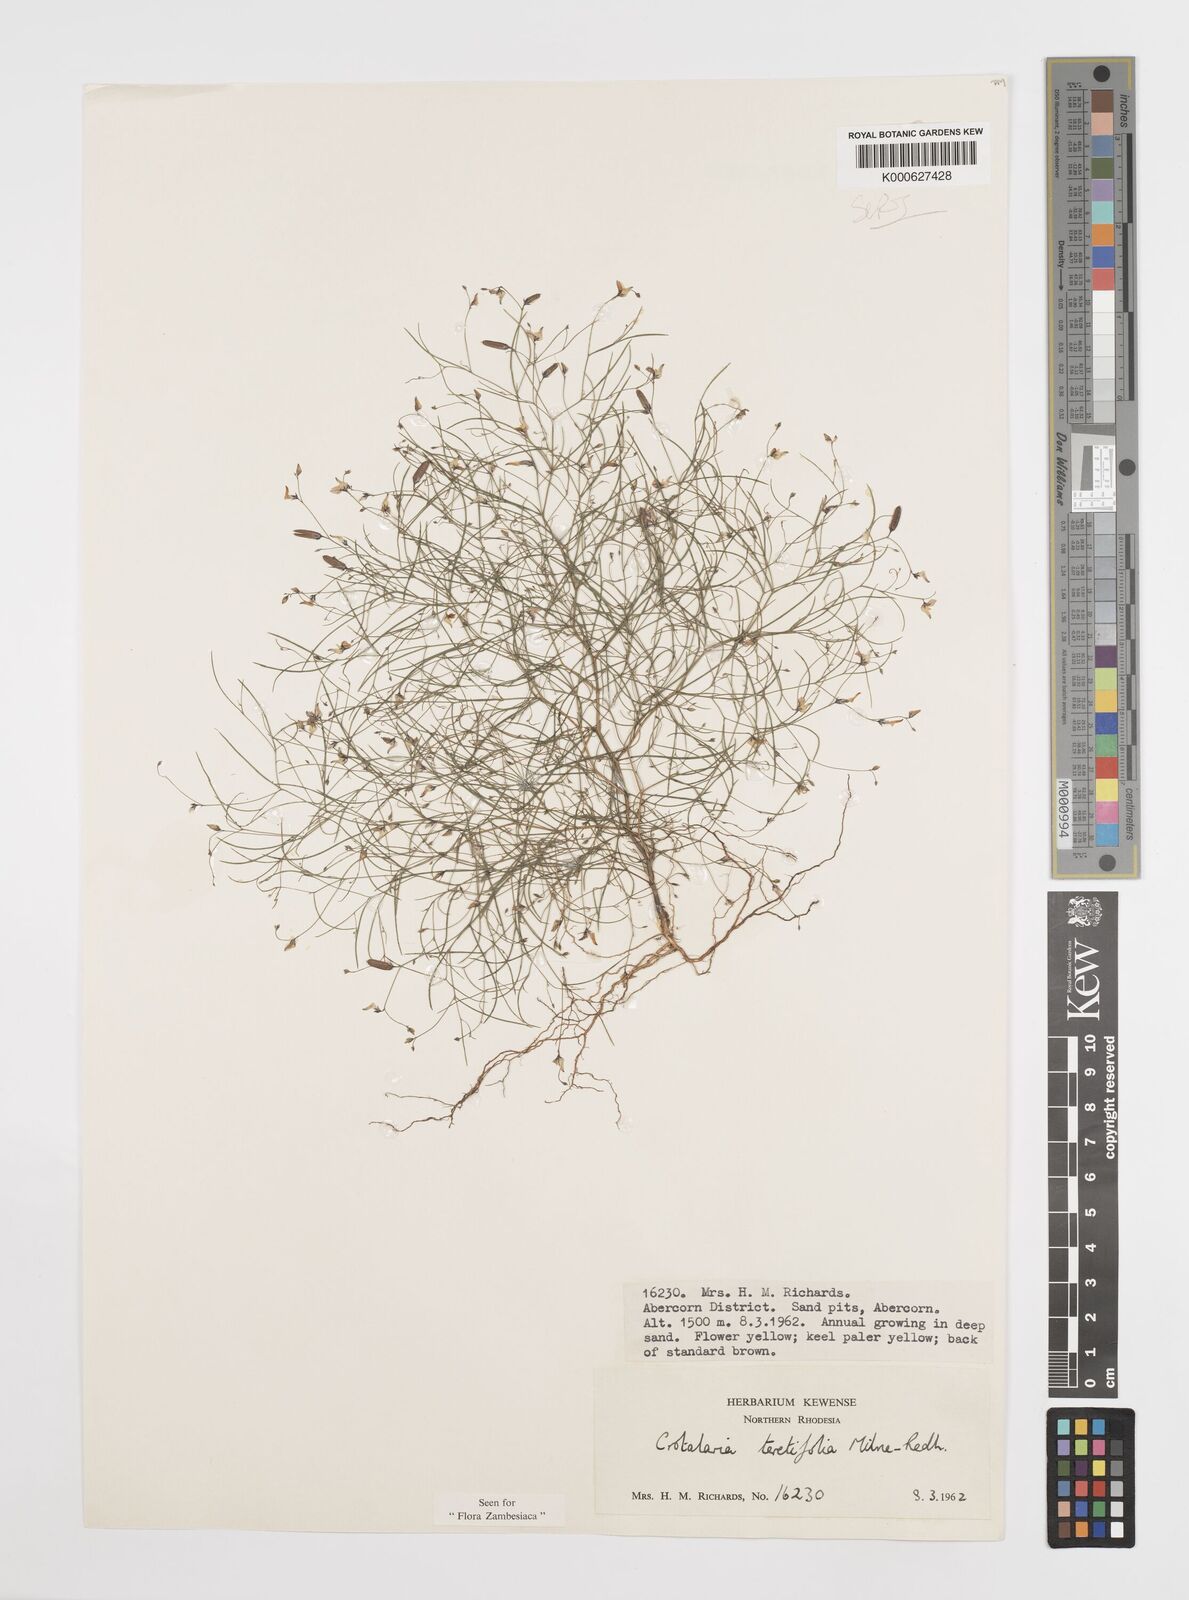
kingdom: Plantae
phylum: Tracheophyta
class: Magnoliopsida
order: Fabales
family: Fabaceae
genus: Crotalaria
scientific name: Crotalaria teretifolia
